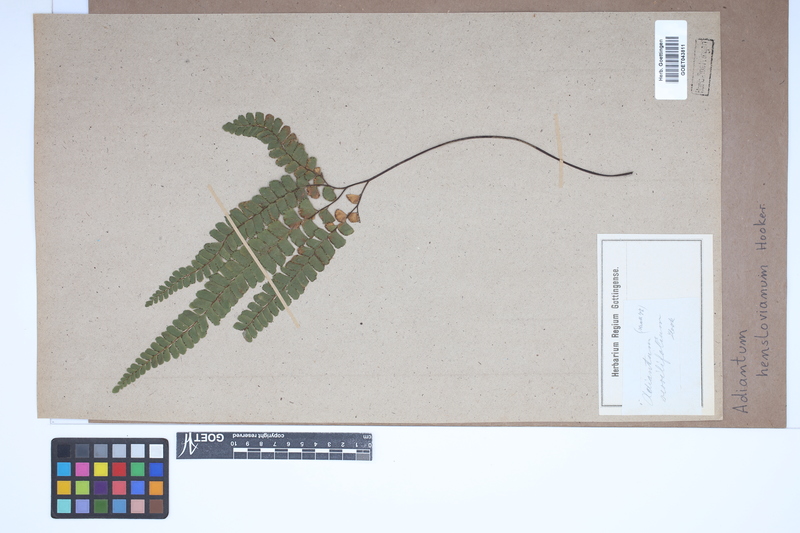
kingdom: Plantae
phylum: Tracheophyta
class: Polypodiopsida
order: Polypodiales
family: Pteridaceae
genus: Adiantum
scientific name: Adiantum henslovianum
